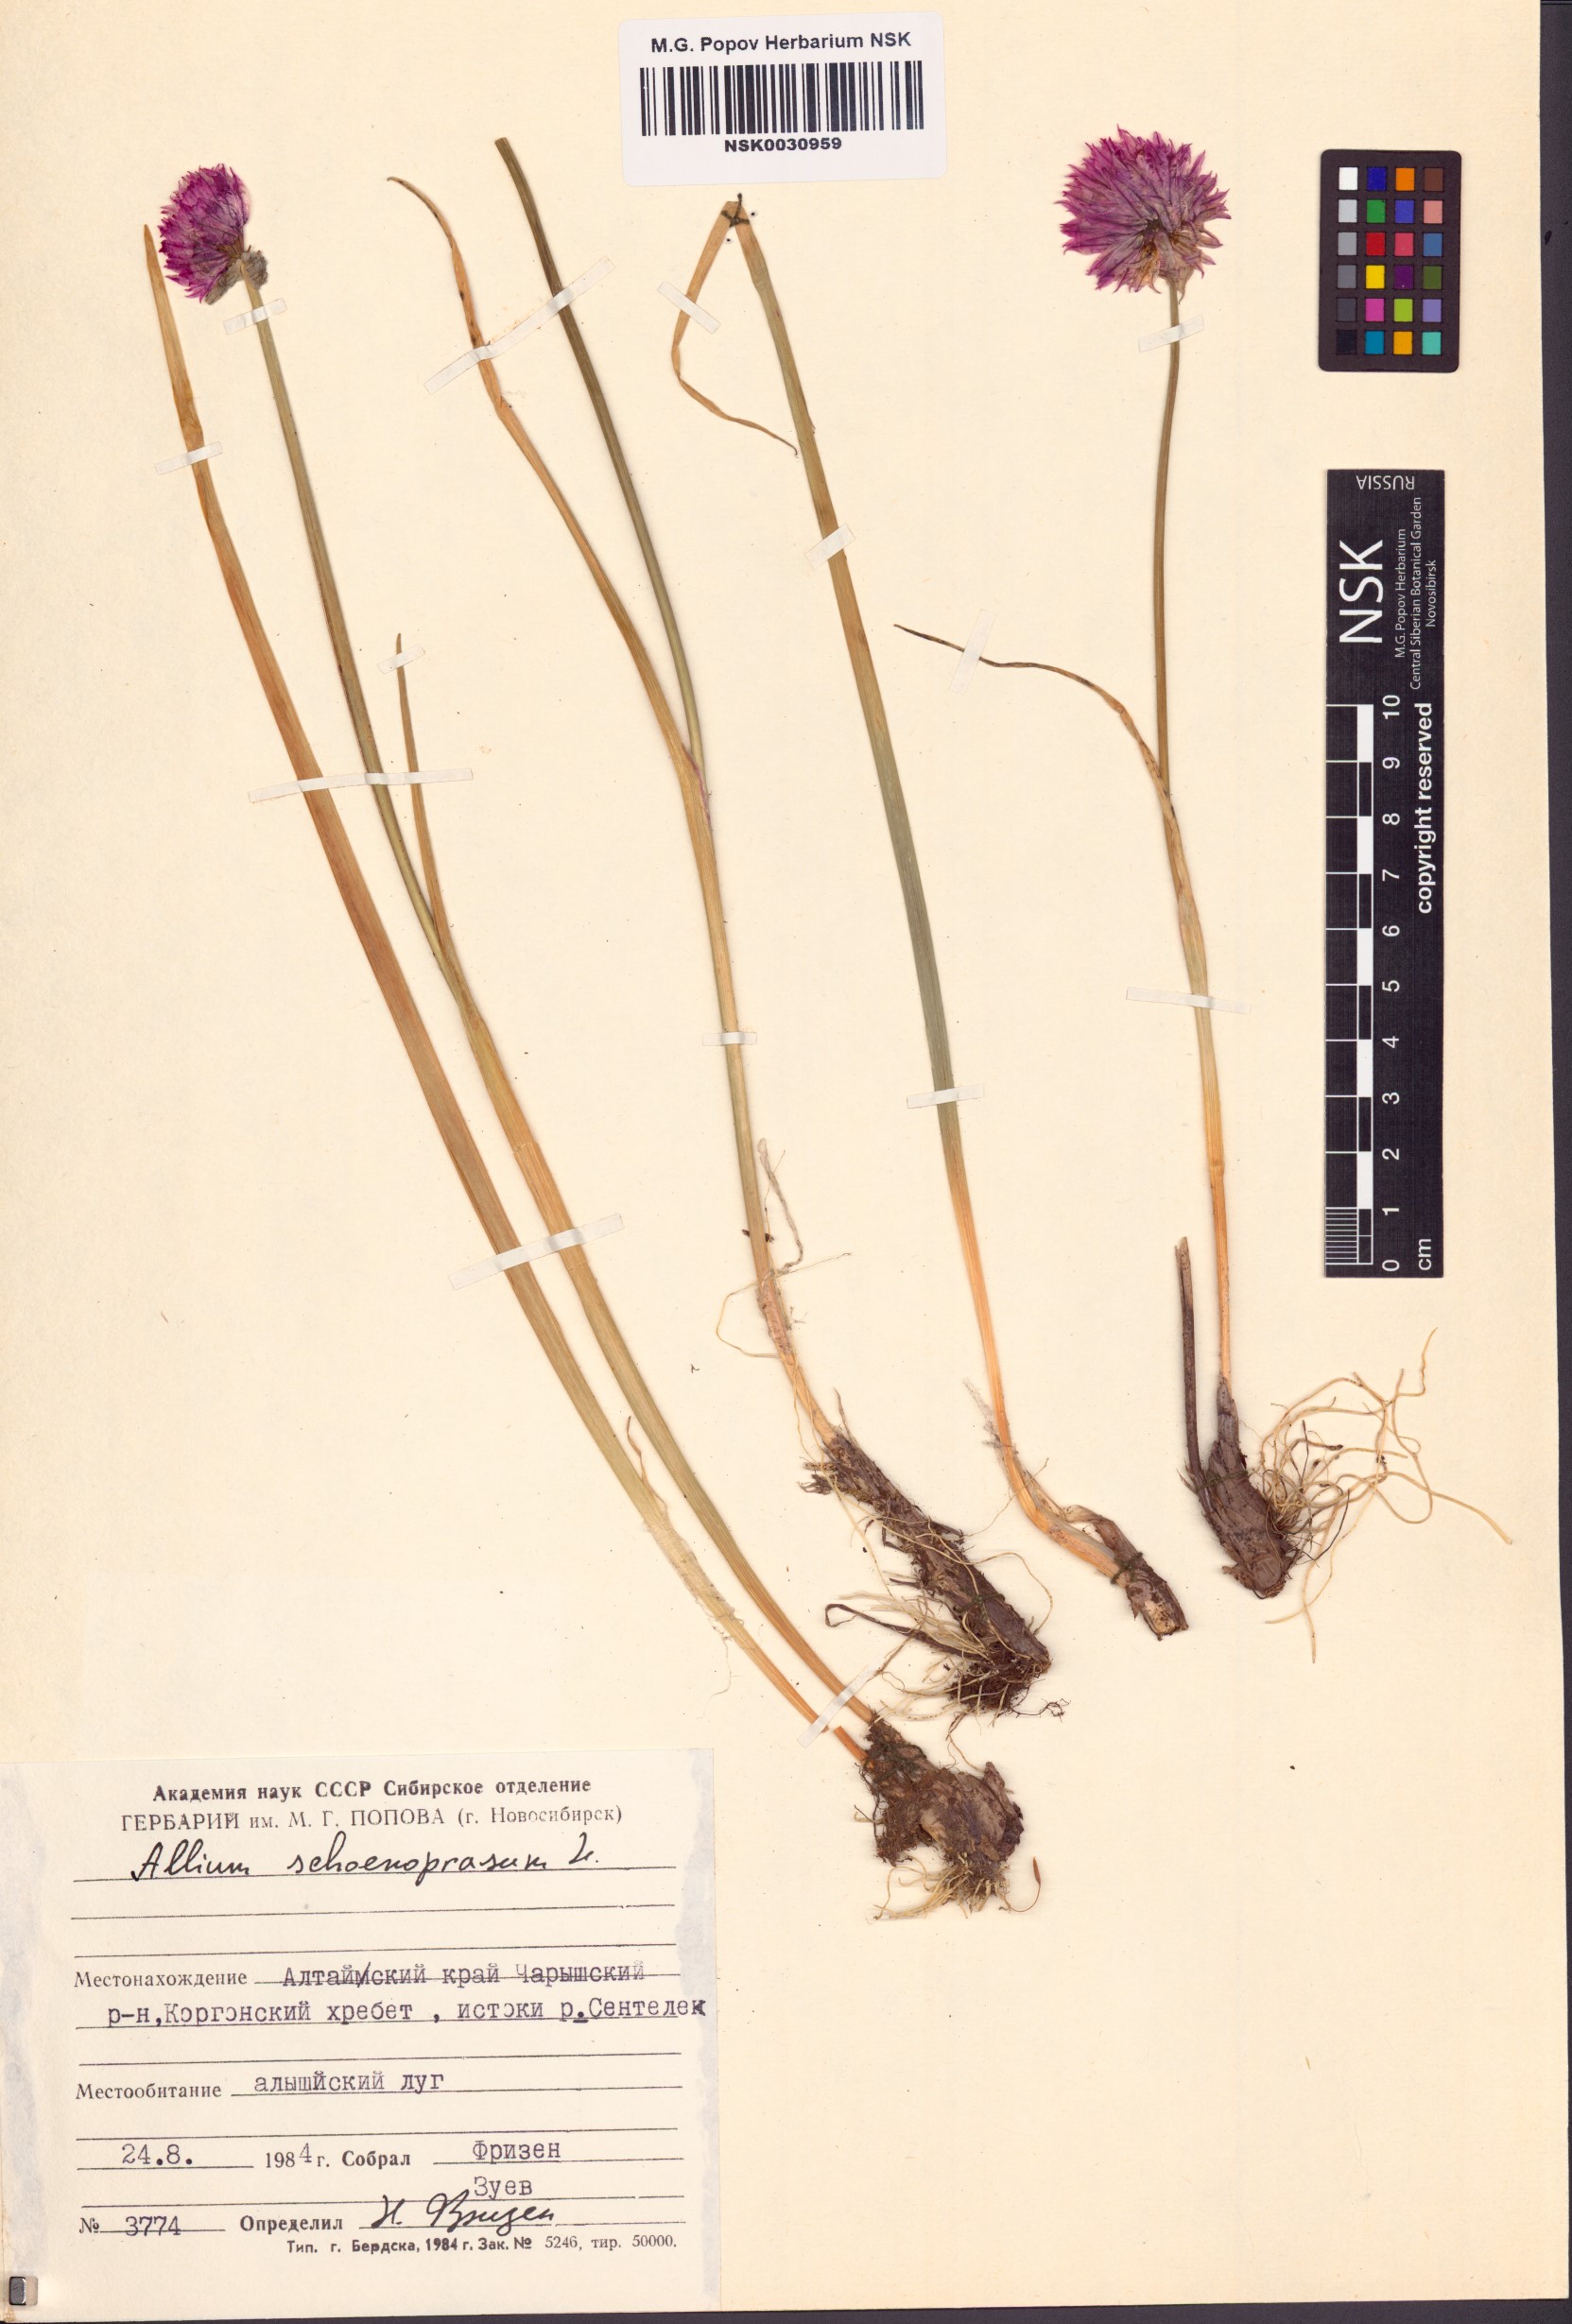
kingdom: Plantae
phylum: Tracheophyta
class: Liliopsida
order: Asparagales
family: Amaryllidaceae
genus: Allium
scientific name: Allium schoenoprasum
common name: Chives
